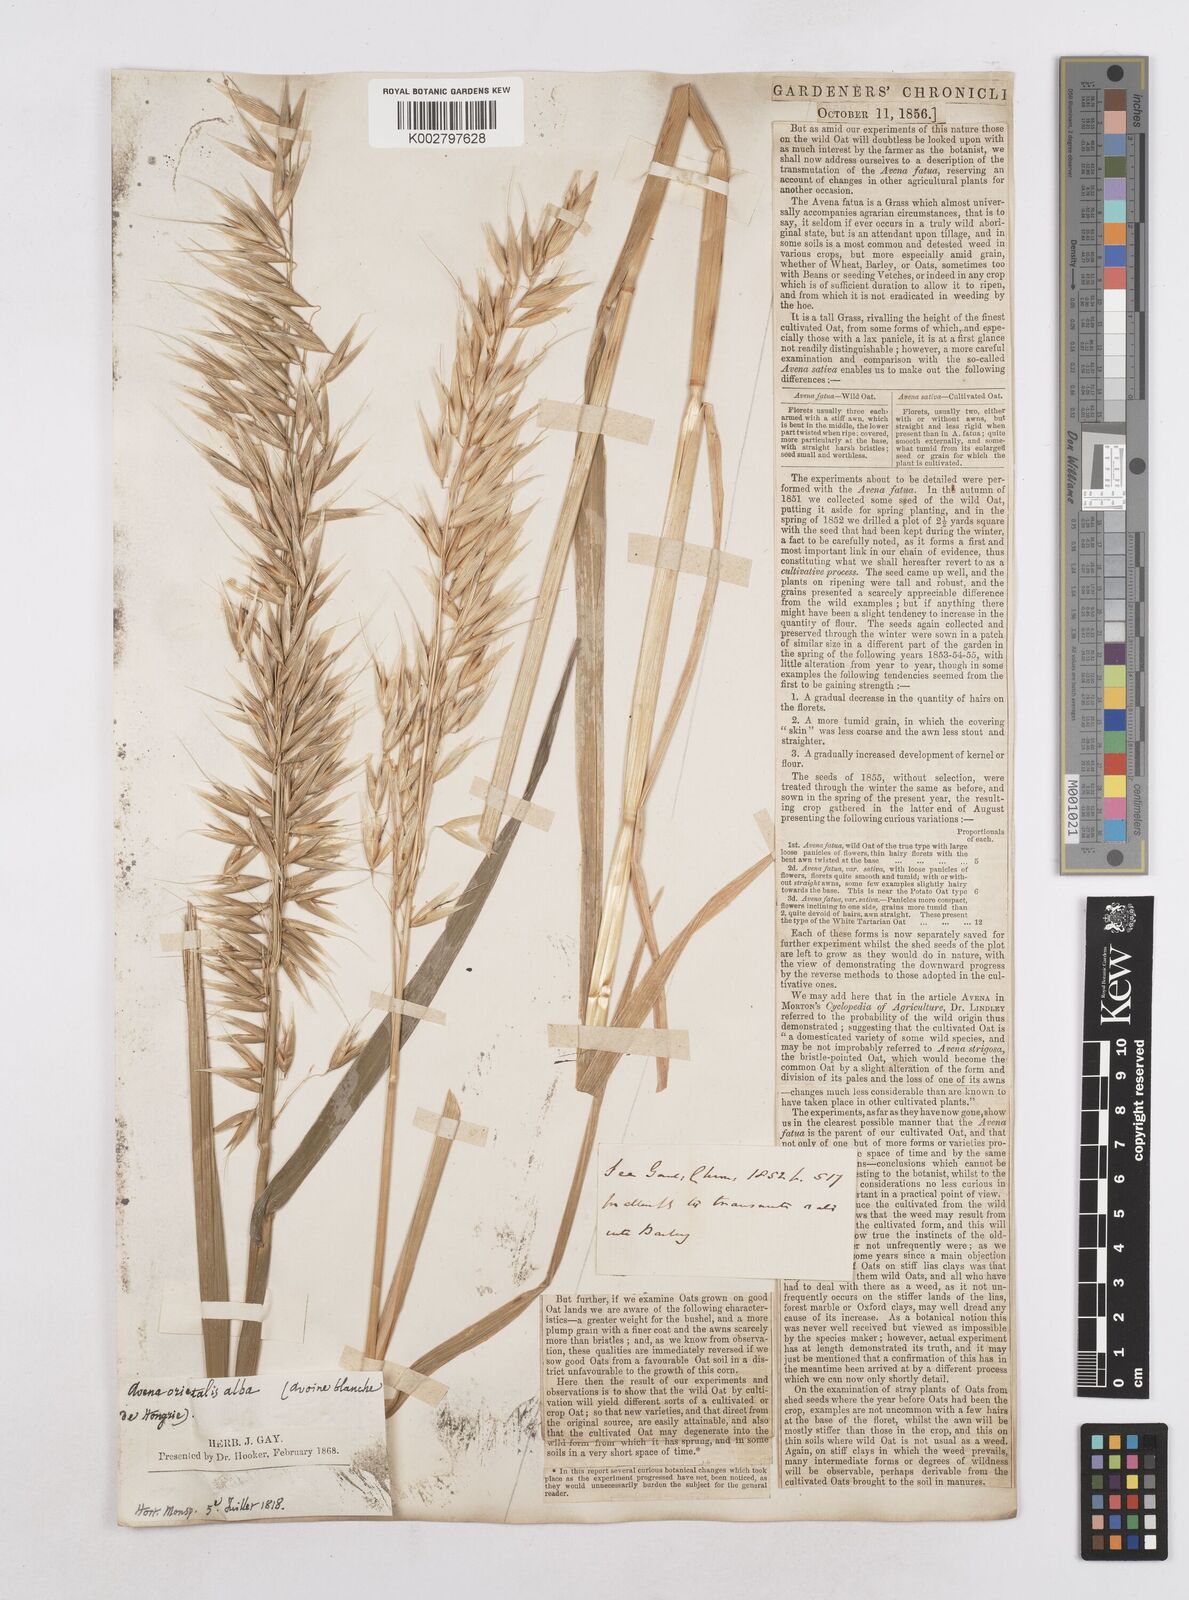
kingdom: Plantae
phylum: Tracheophyta
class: Liliopsida
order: Poales
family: Poaceae
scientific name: Poaceae
